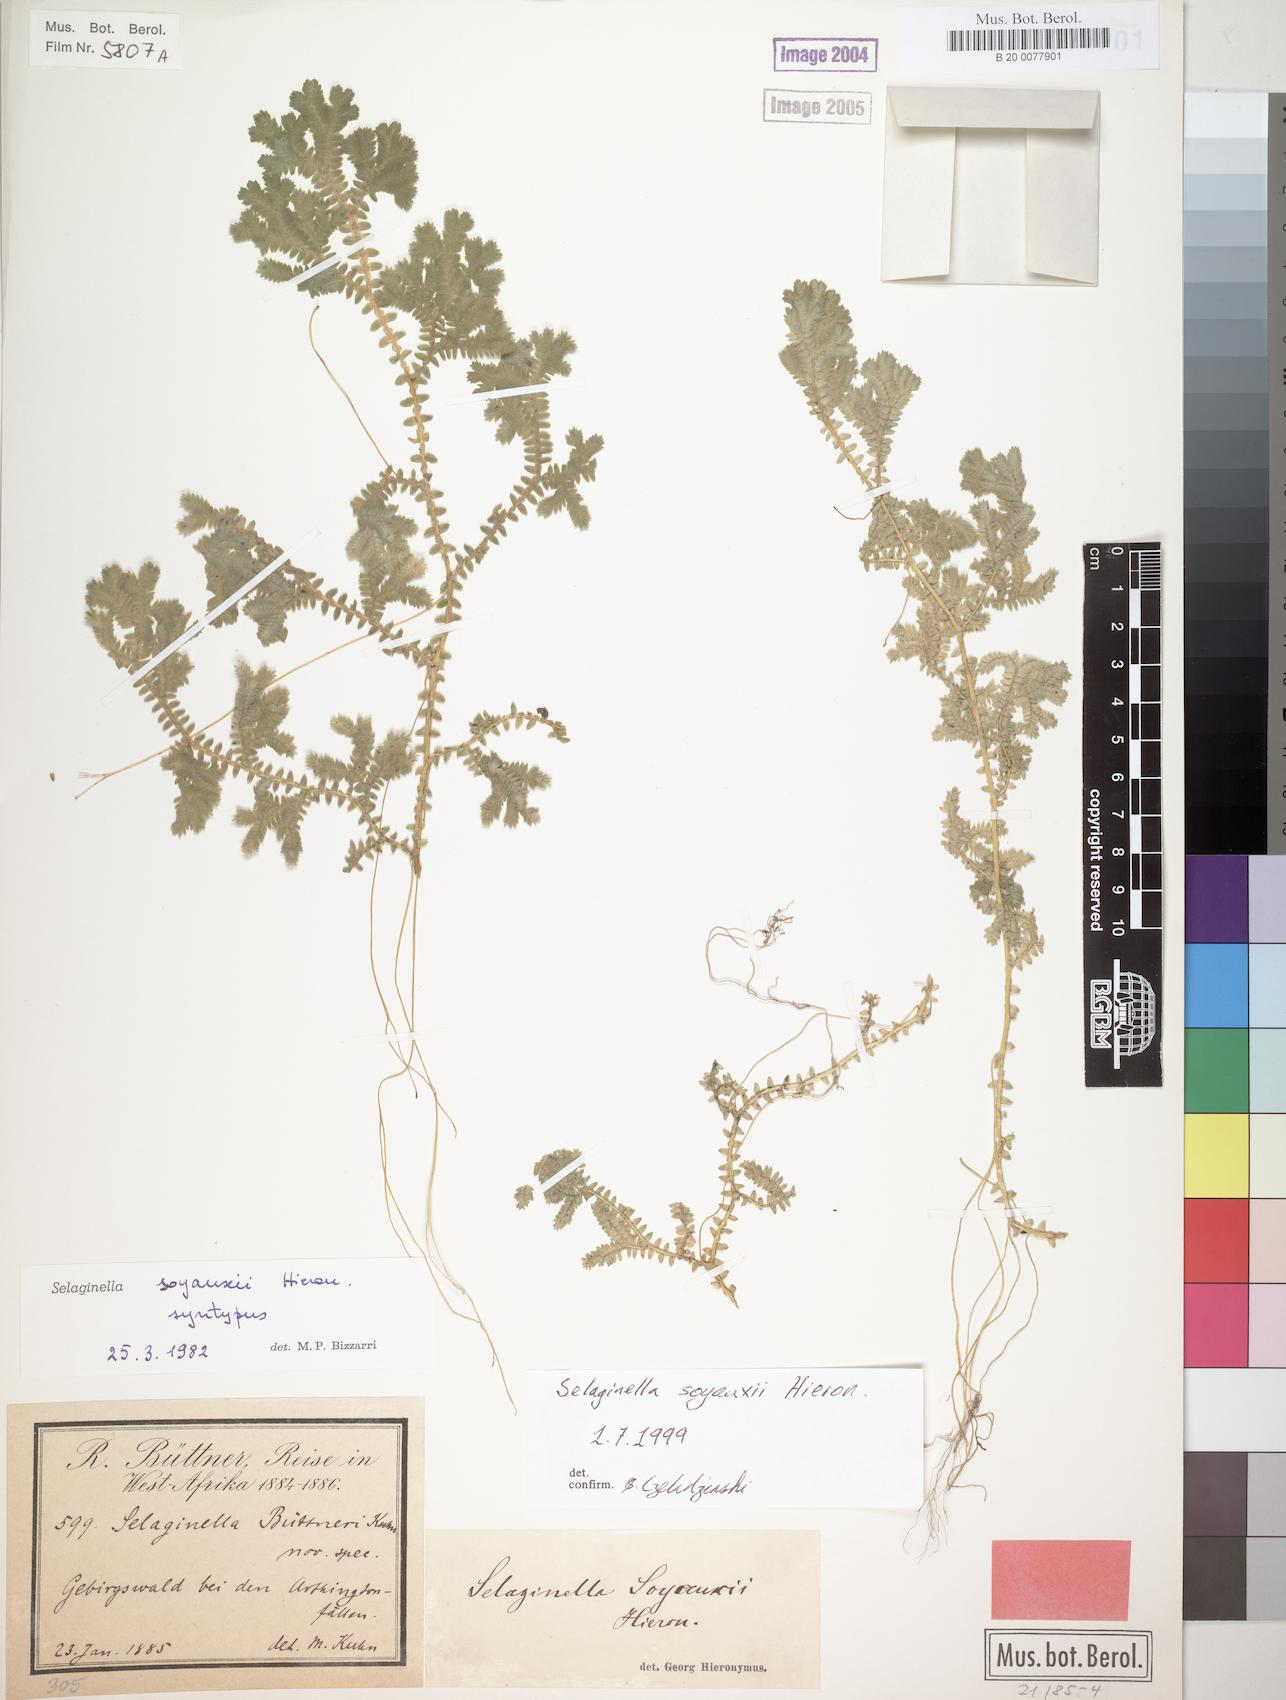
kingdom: Plantae
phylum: Tracheophyta
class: Lycopodiopsida
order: Selaginellales
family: Selaginellaceae
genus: Selaginella
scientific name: Selaginella
